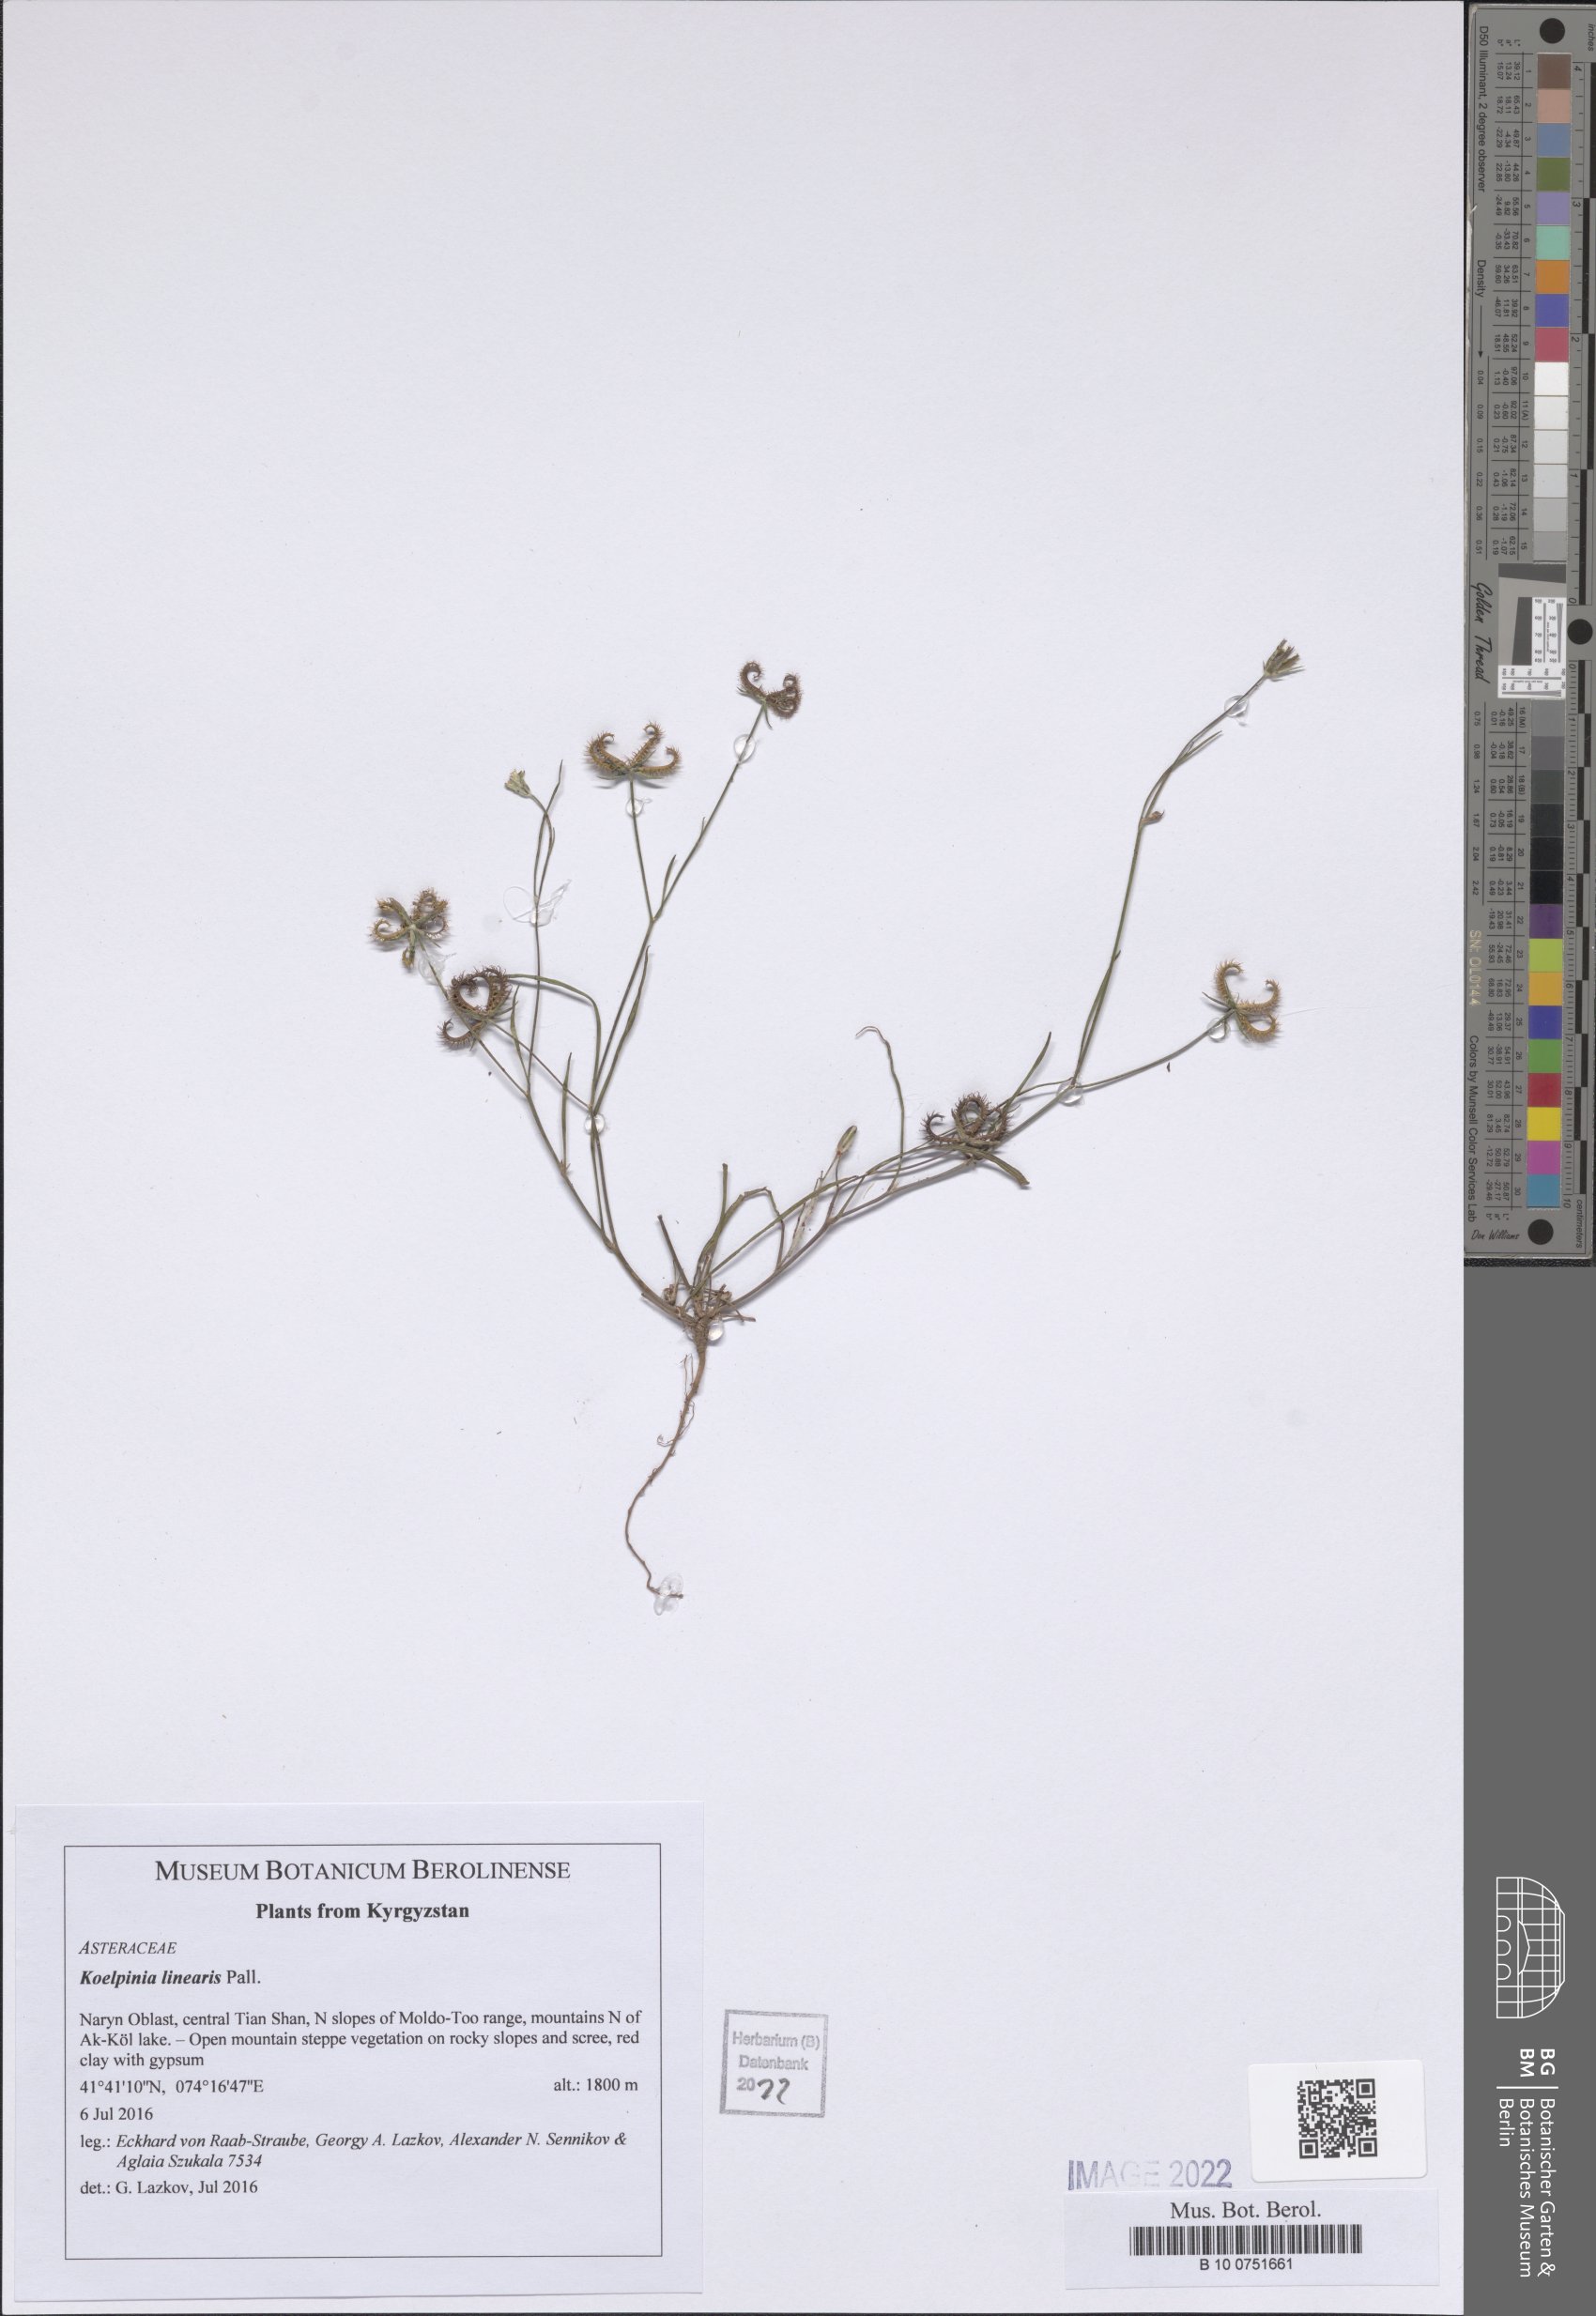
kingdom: Plantae
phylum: Tracheophyta
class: Magnoliopsida
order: Asterales
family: Asteraceae
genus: Koelpinia
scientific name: Koelpinia linearis
